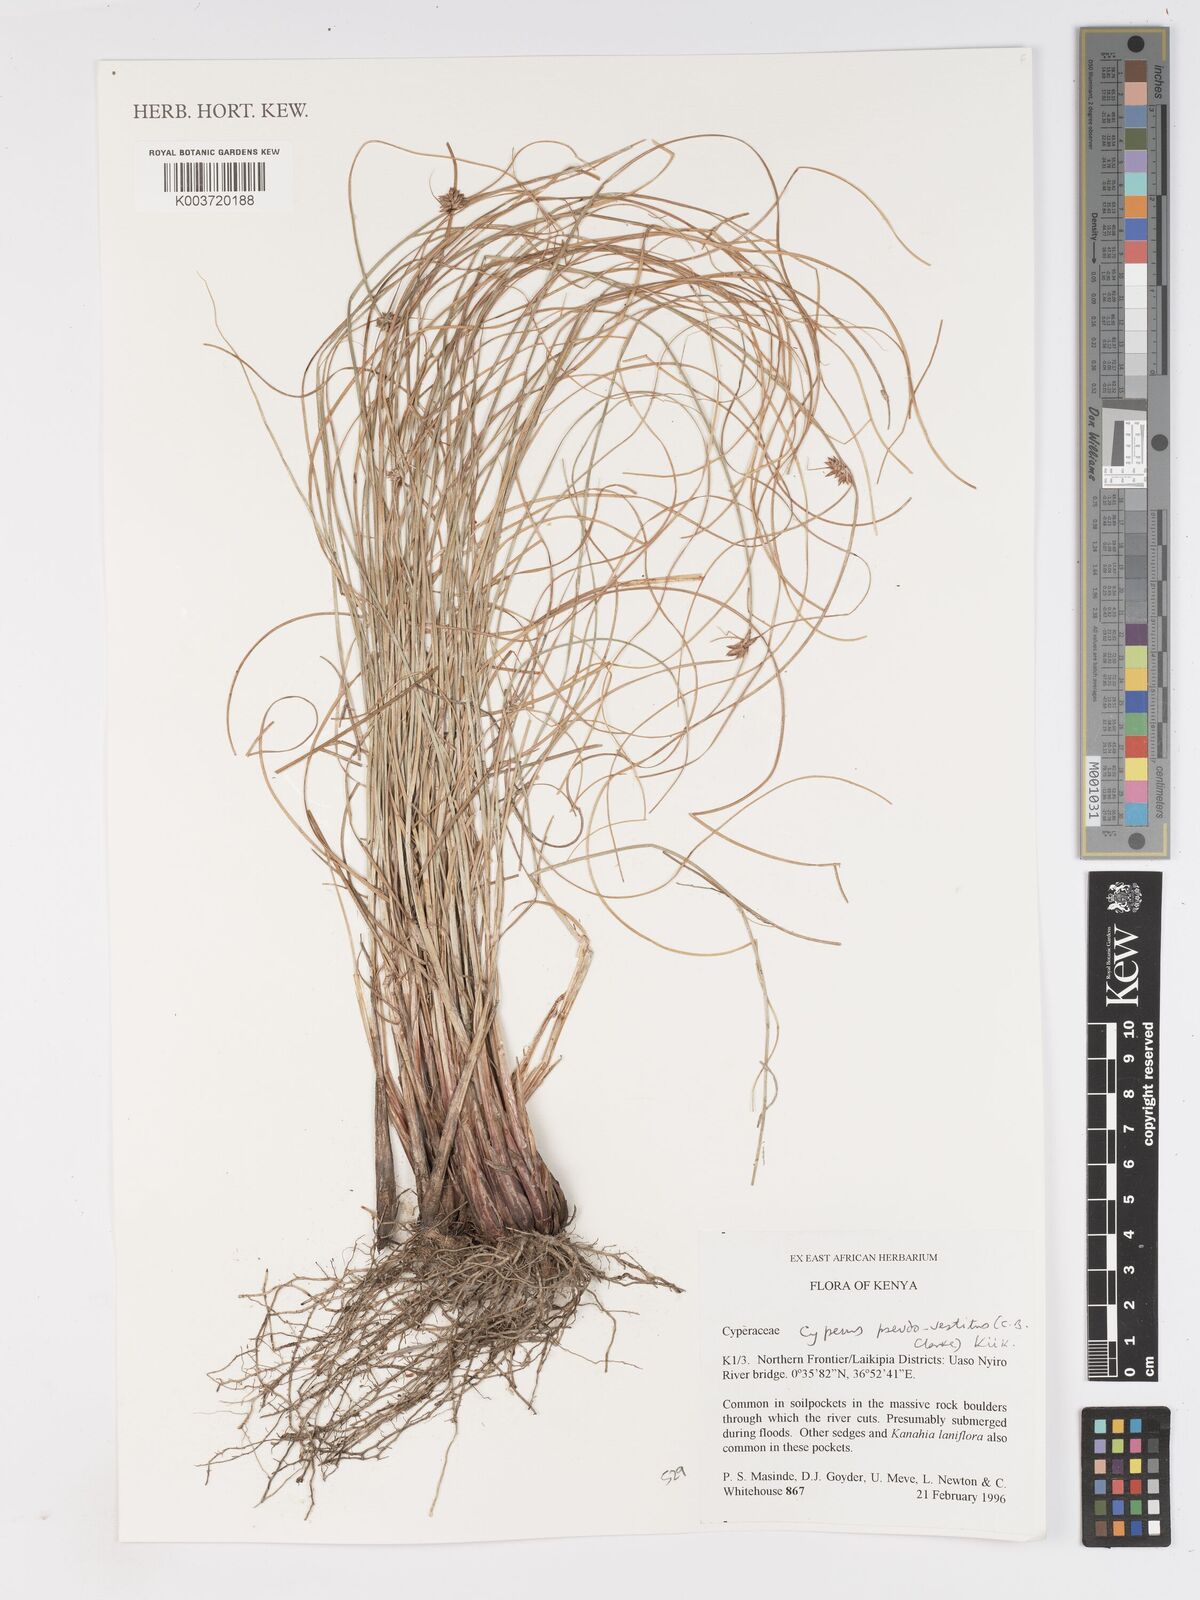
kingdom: Plantae
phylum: Tracheophyta
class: Liliopsida
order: Poales
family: Cyperaceae
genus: Cyperus
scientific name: Cyperus pseudovestitus
